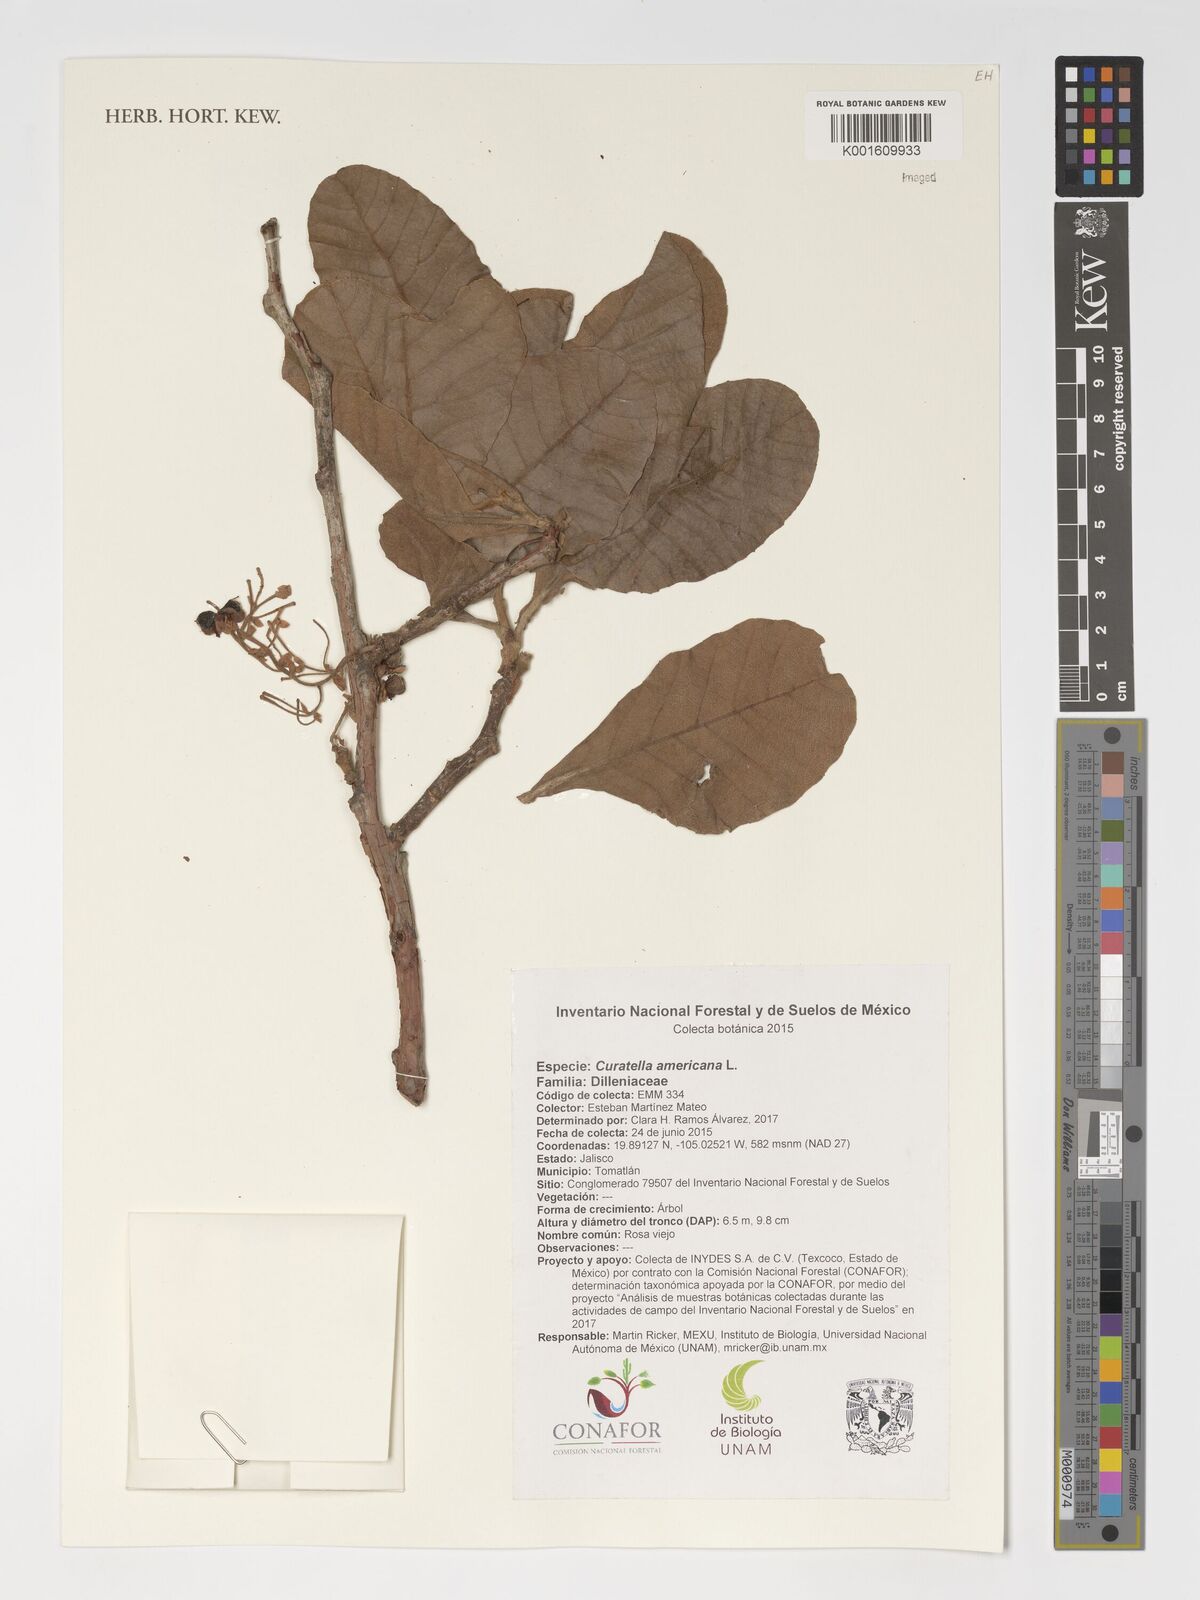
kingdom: Plantae
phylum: Tracheophyta
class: Magnoliopsida
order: Dilleniales
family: Dilleniaceae
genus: Curatella
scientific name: Curatella americana
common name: Sandpaper tree
